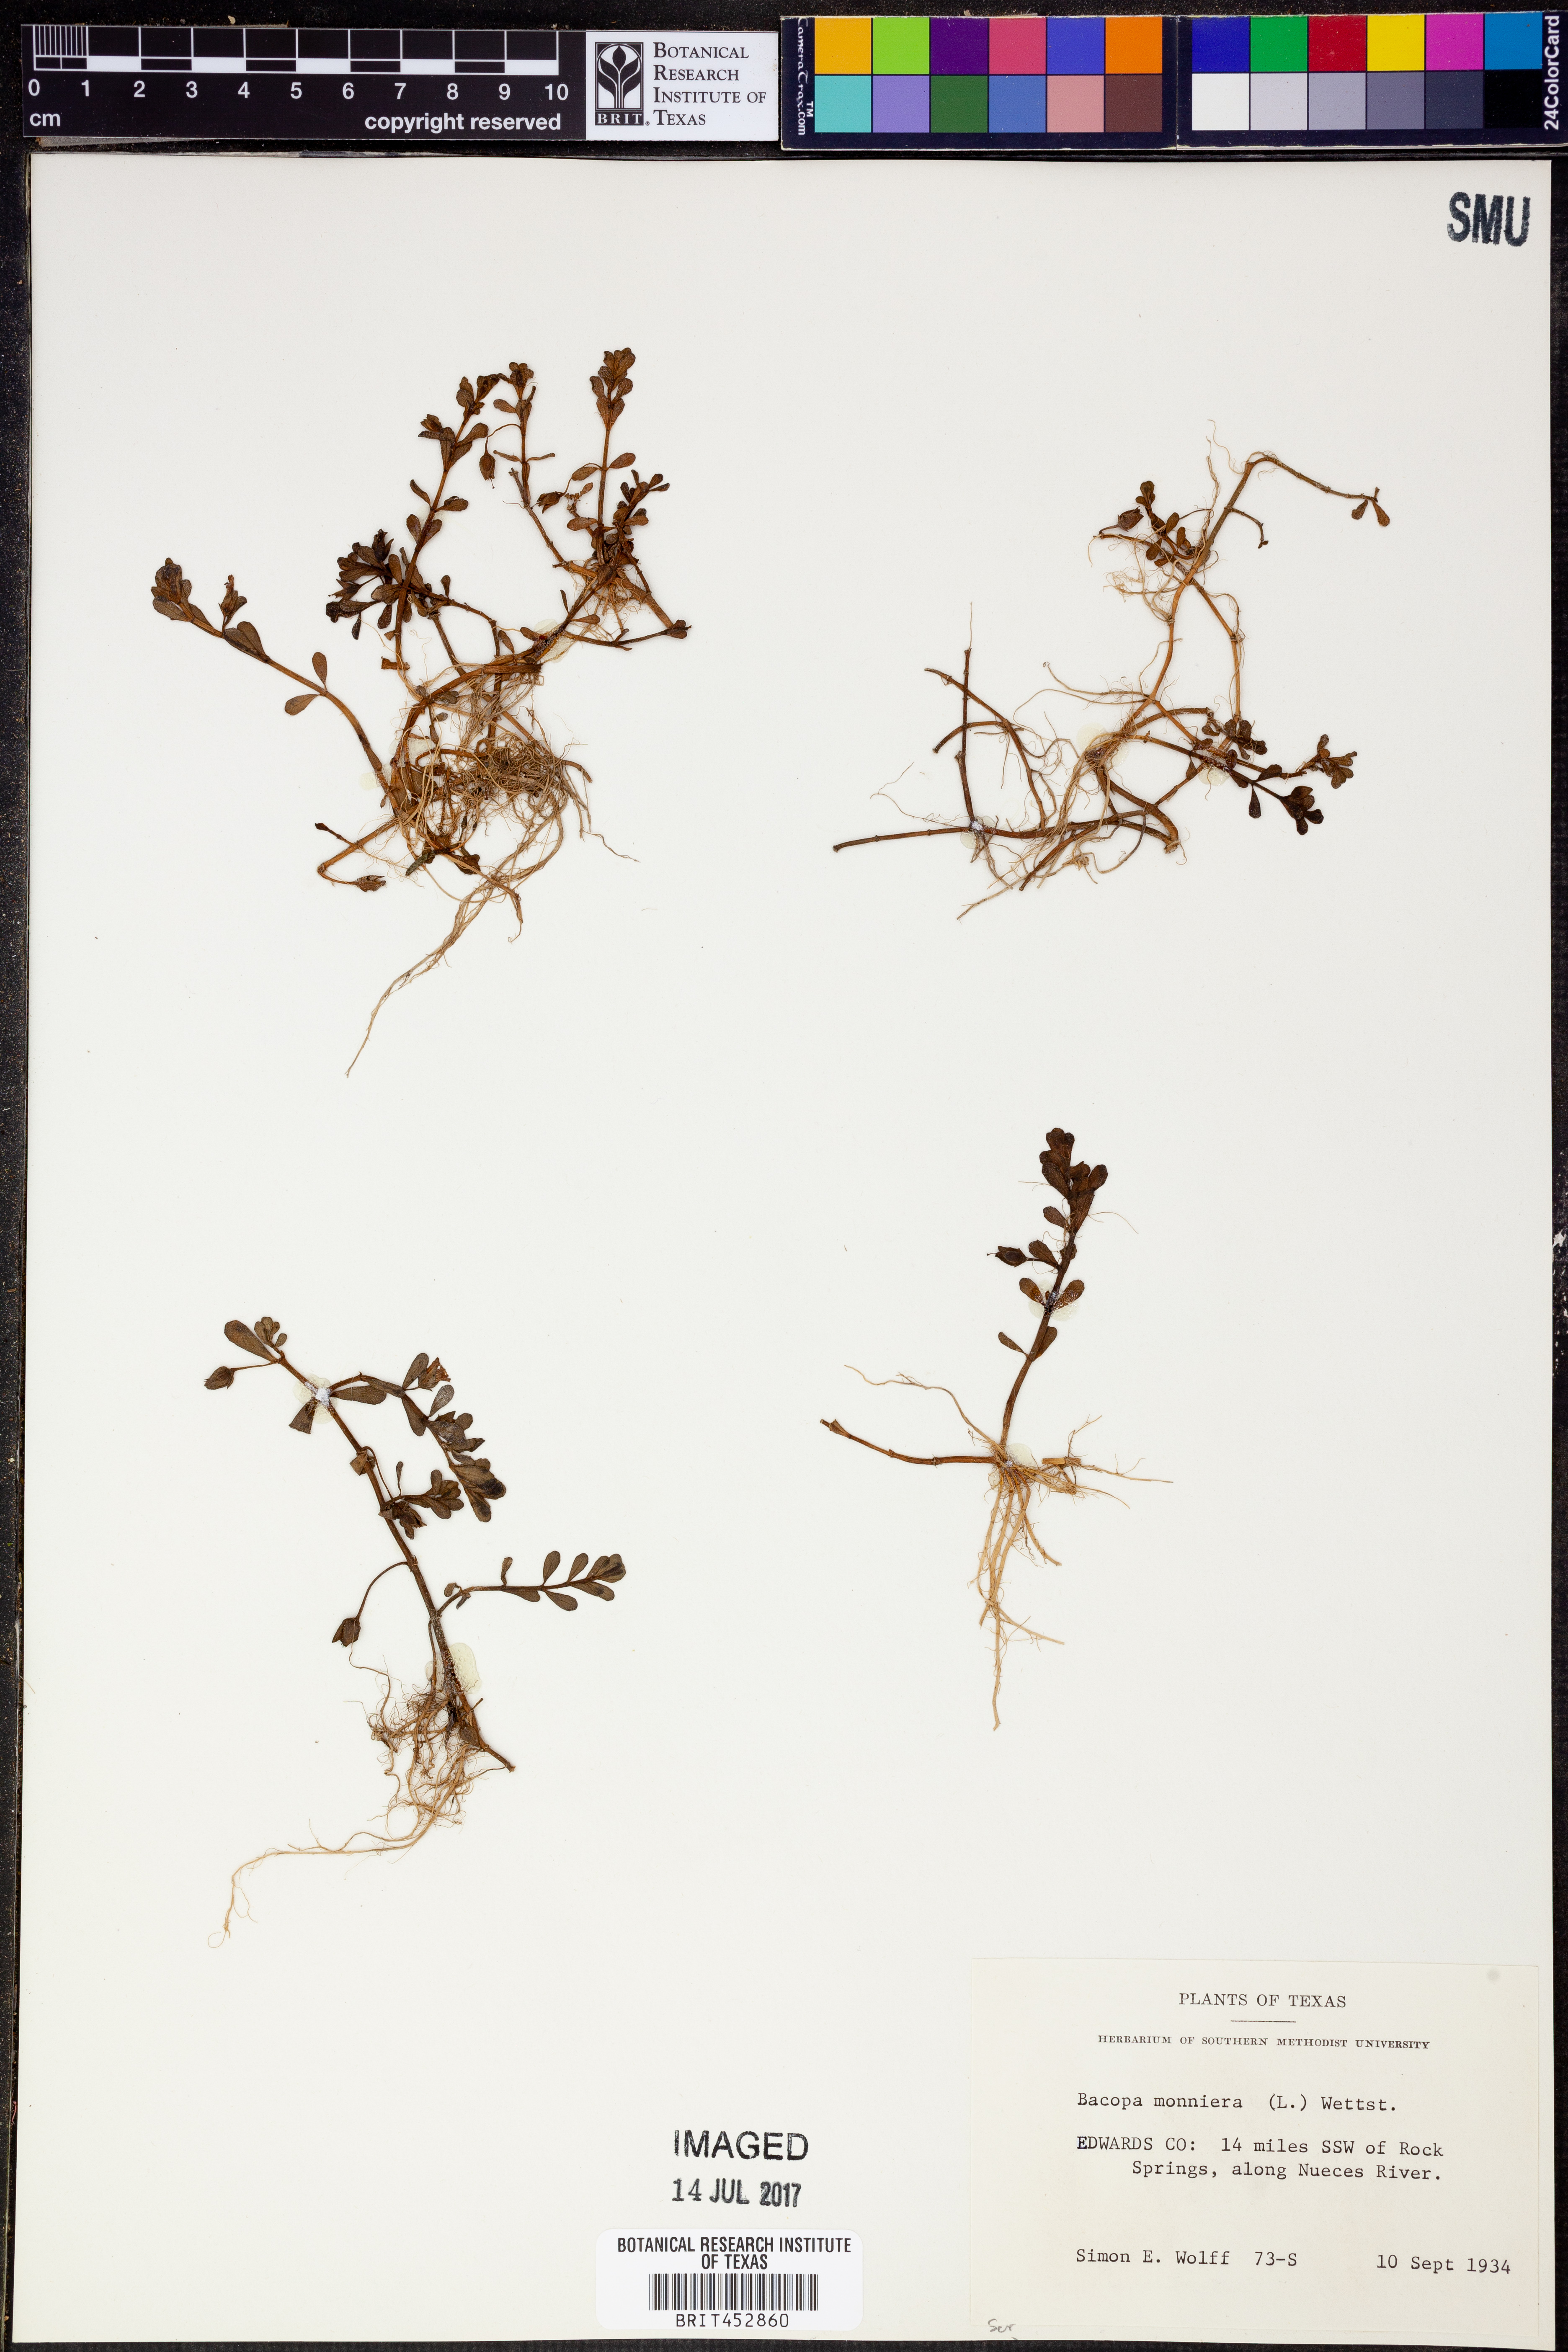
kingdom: Plantae
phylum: Tracheophyta
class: Magnoliopsida
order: Lamiales
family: Plantaginaceae
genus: Bacopa
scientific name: Bacopa monnieri
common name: Indian-pennywort
